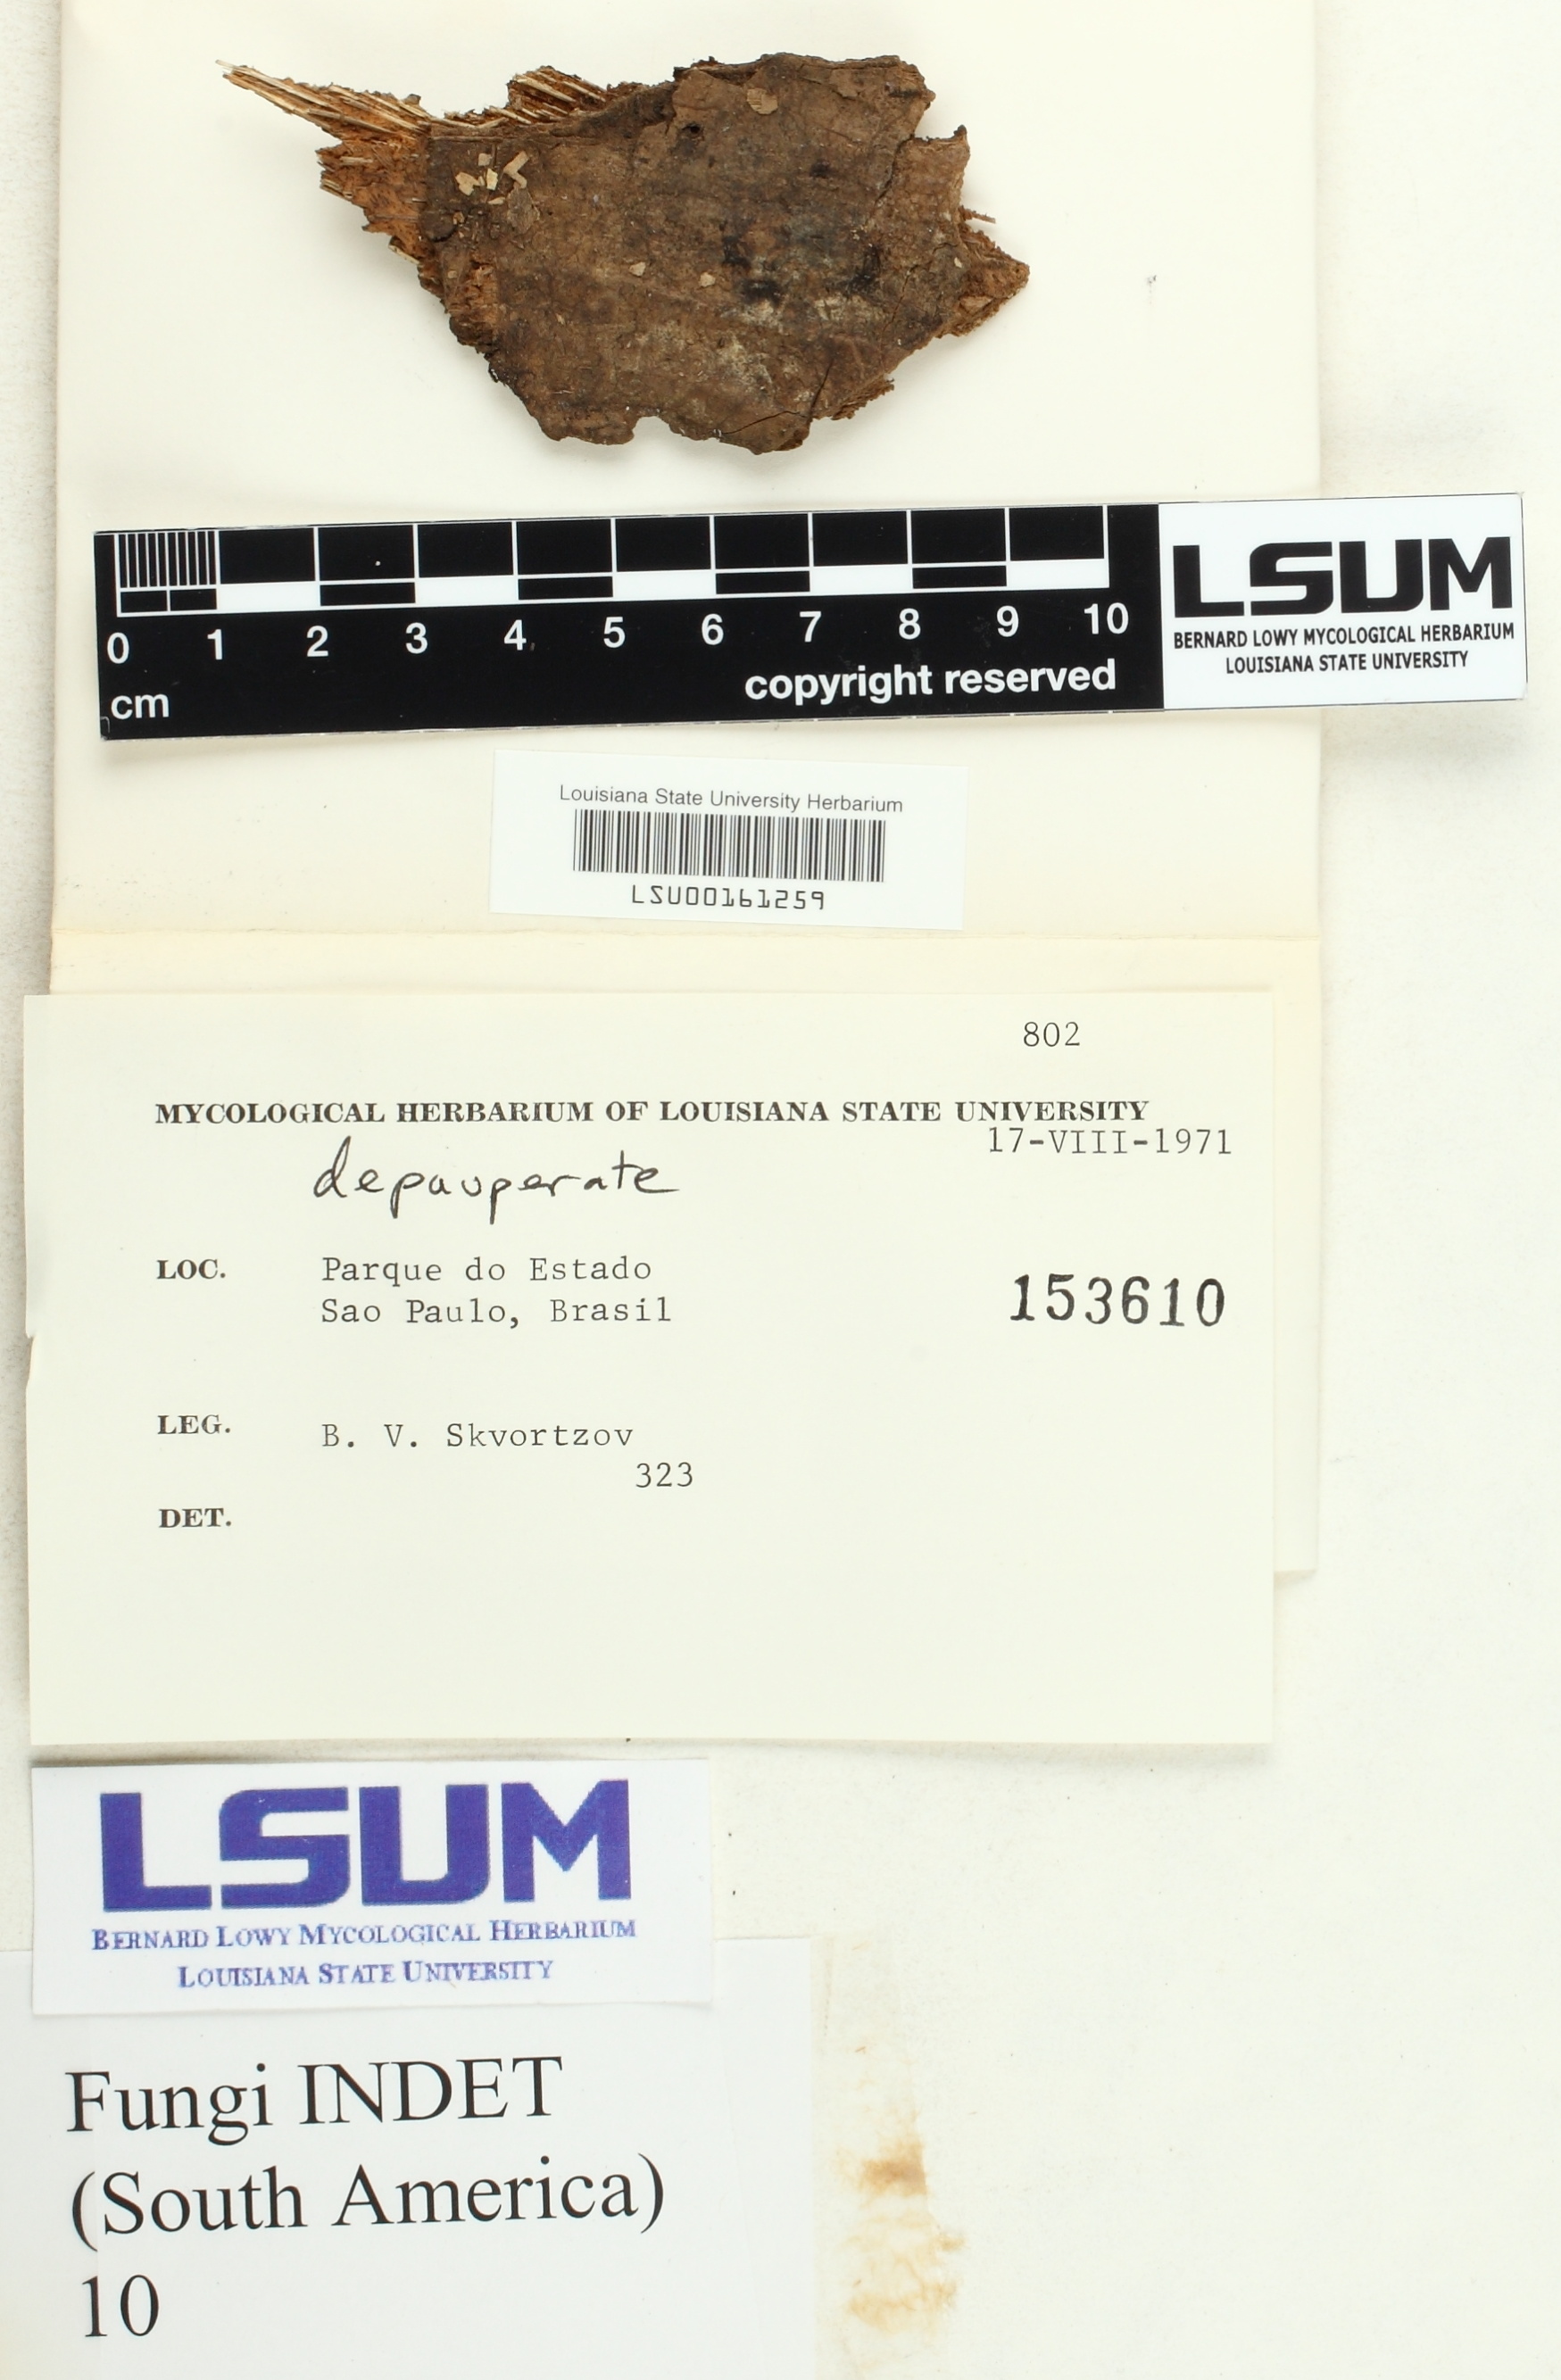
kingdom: Fungi
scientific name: Fungi
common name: Fungi
